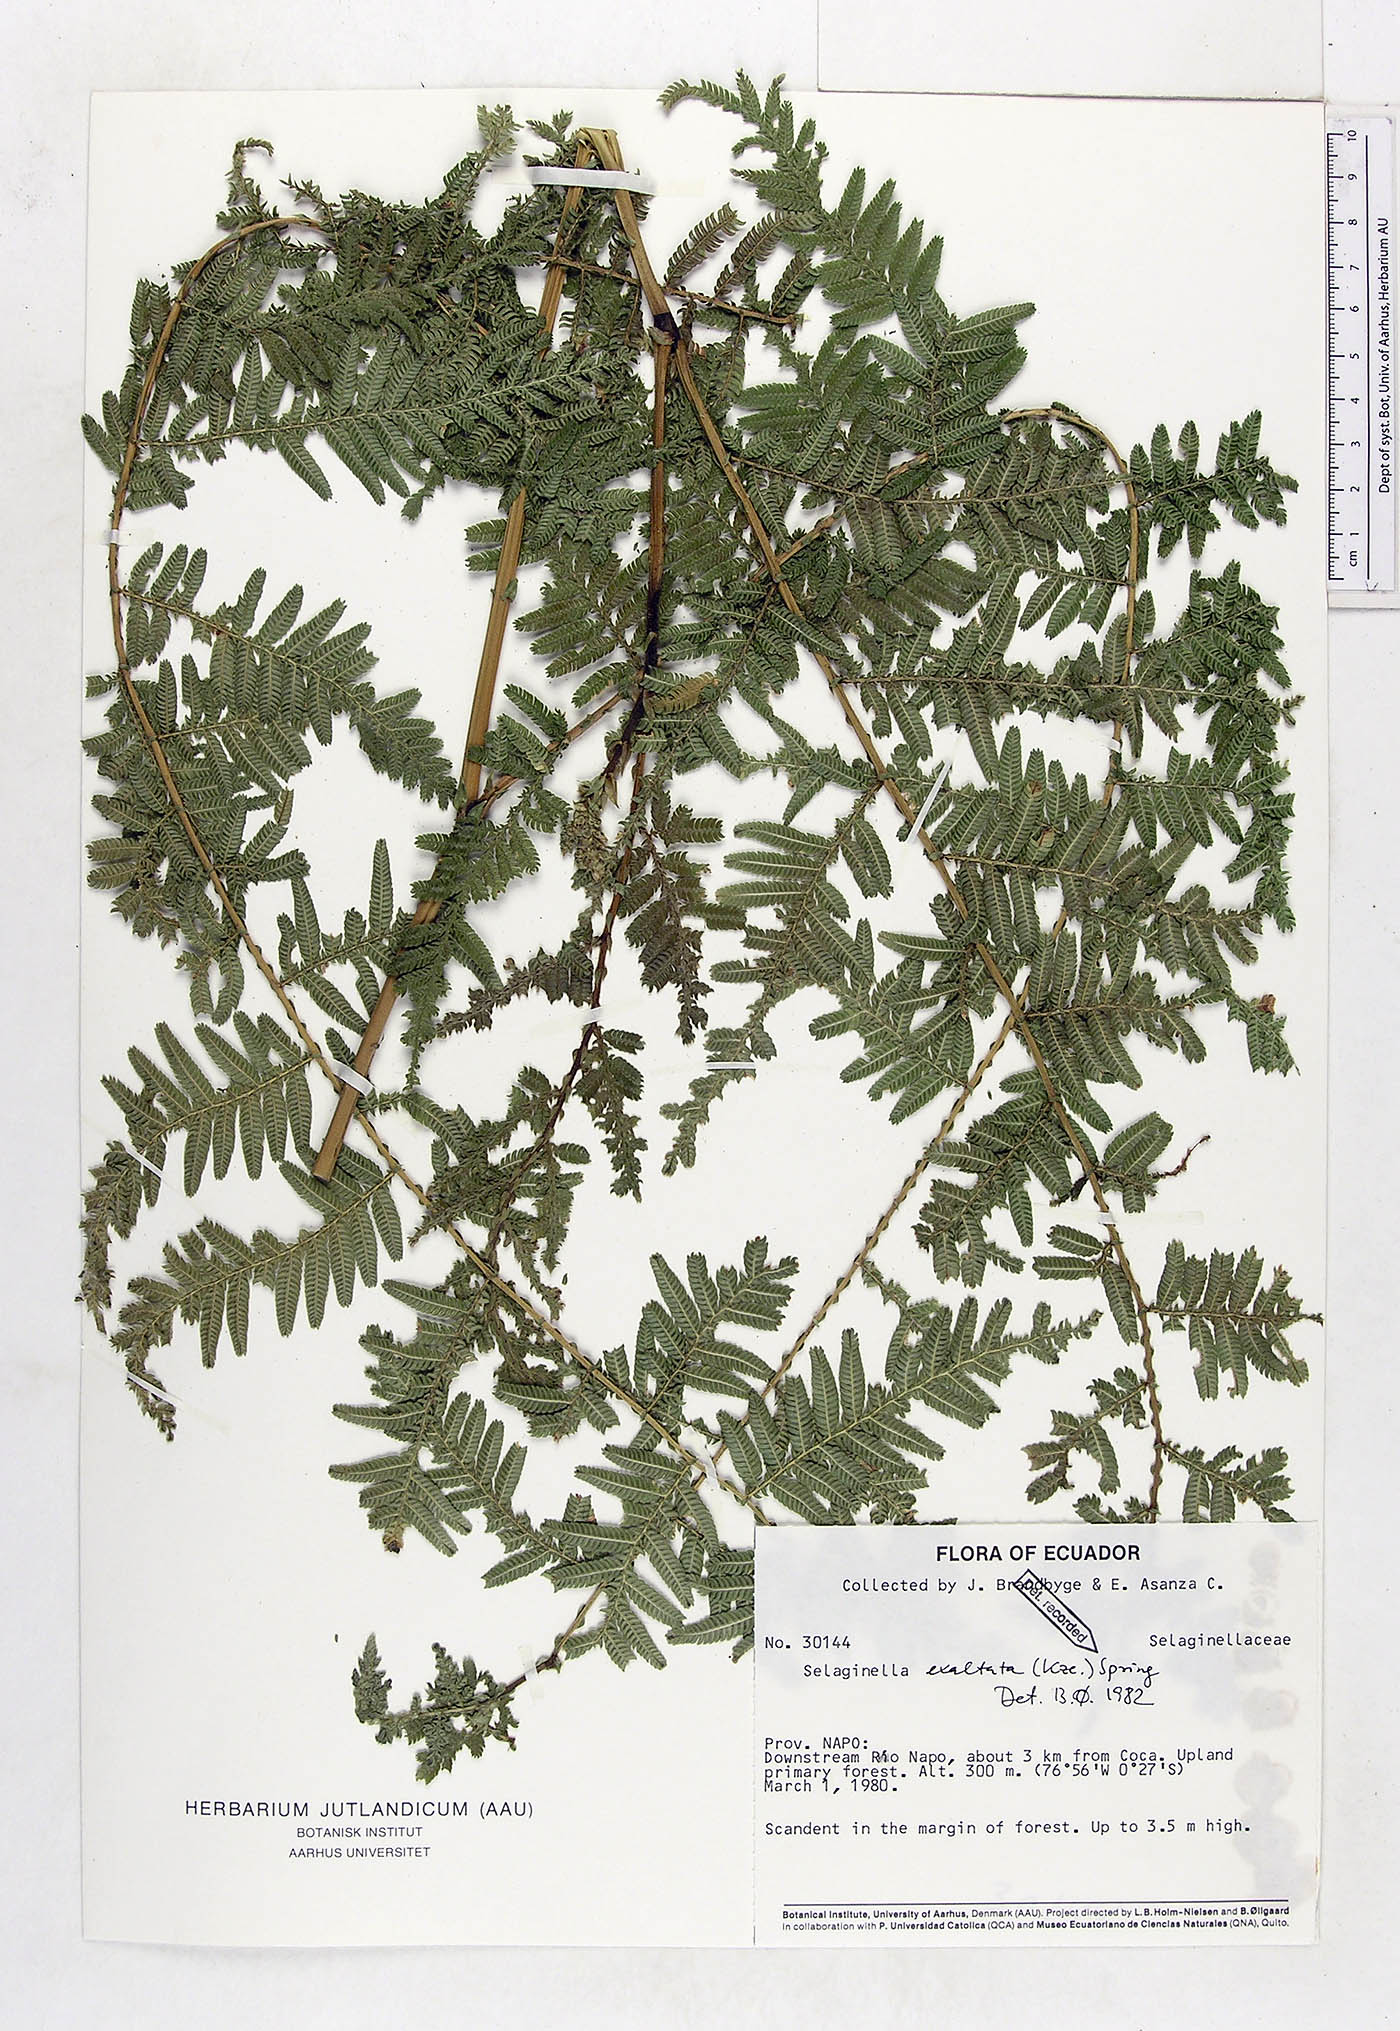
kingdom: Plantae
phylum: Tracheophyta
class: Lycopodiopsida
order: Selaginellales
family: Selaginellaceae
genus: Selaginella
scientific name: Selaginella exaltata
